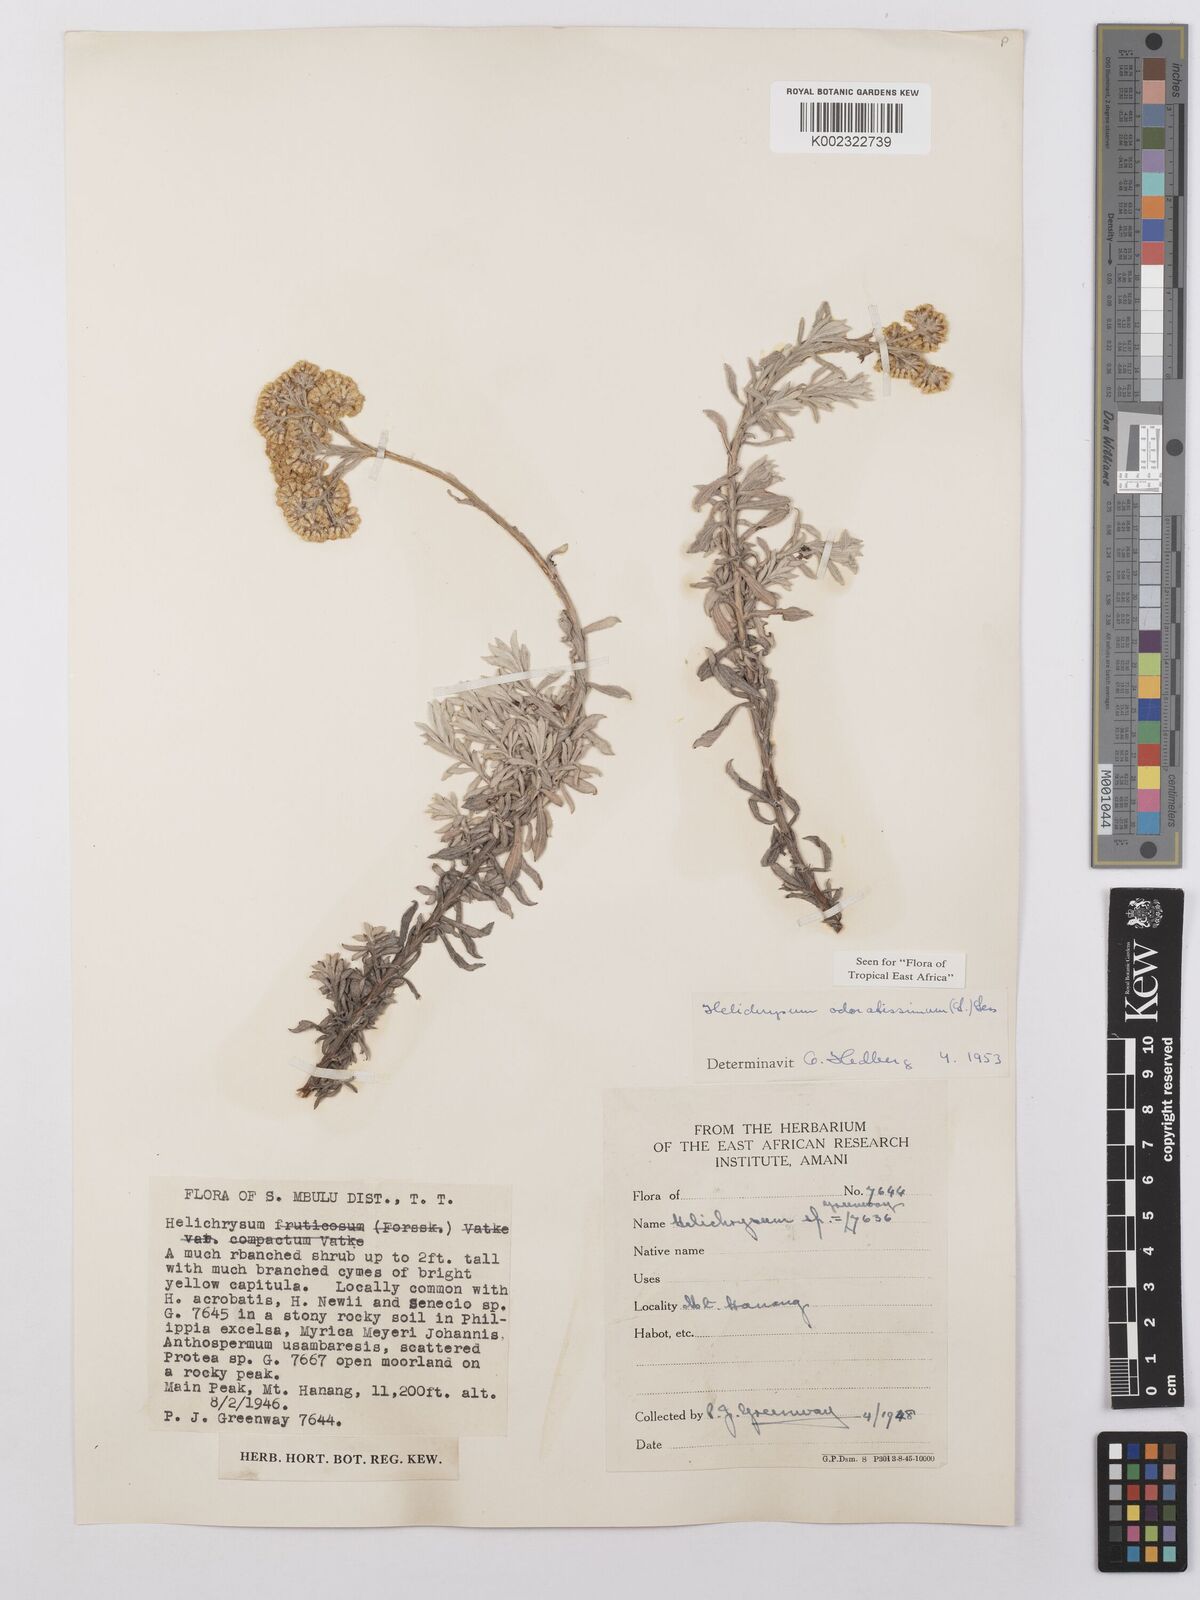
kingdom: Plantae
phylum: Tracheophyta
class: Magnoliopsida
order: Asterales
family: Asteraceae
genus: Helichrysum
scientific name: Helichrysum odoratissimum
